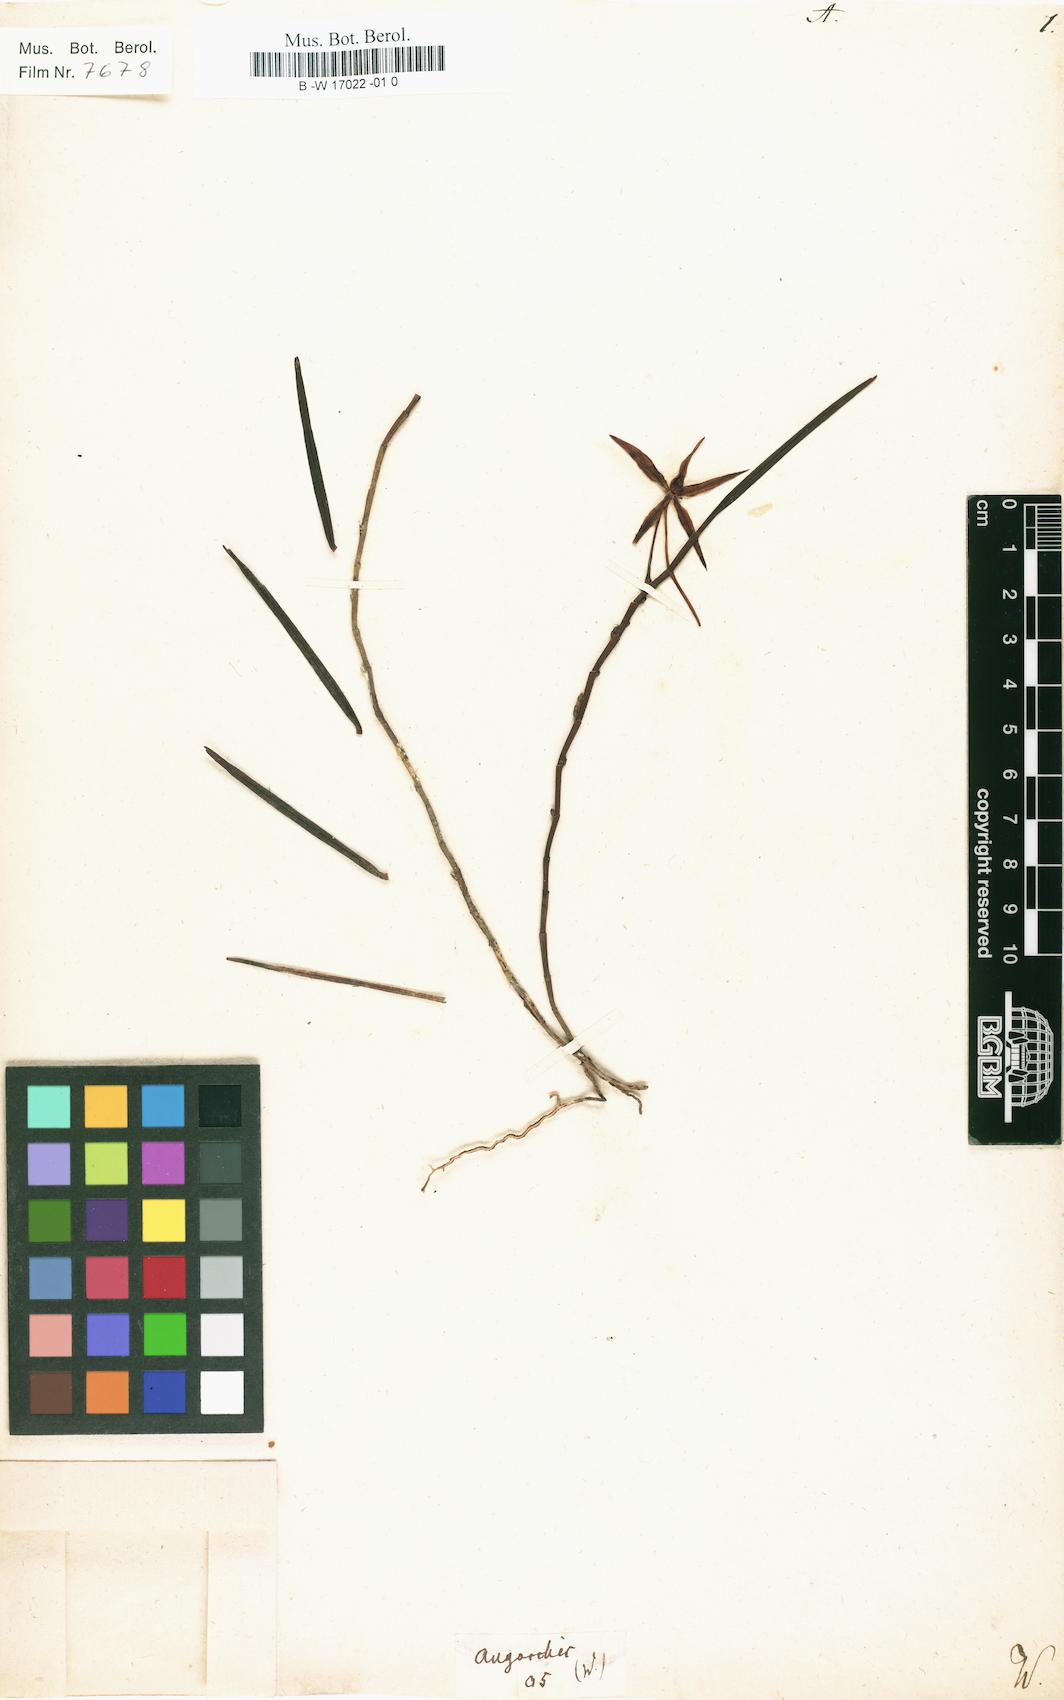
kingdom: Plantae
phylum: Tracheophyta
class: Liliopsida
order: Asparagales
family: Orchidaceae
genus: Angorchis
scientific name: Angorchis
